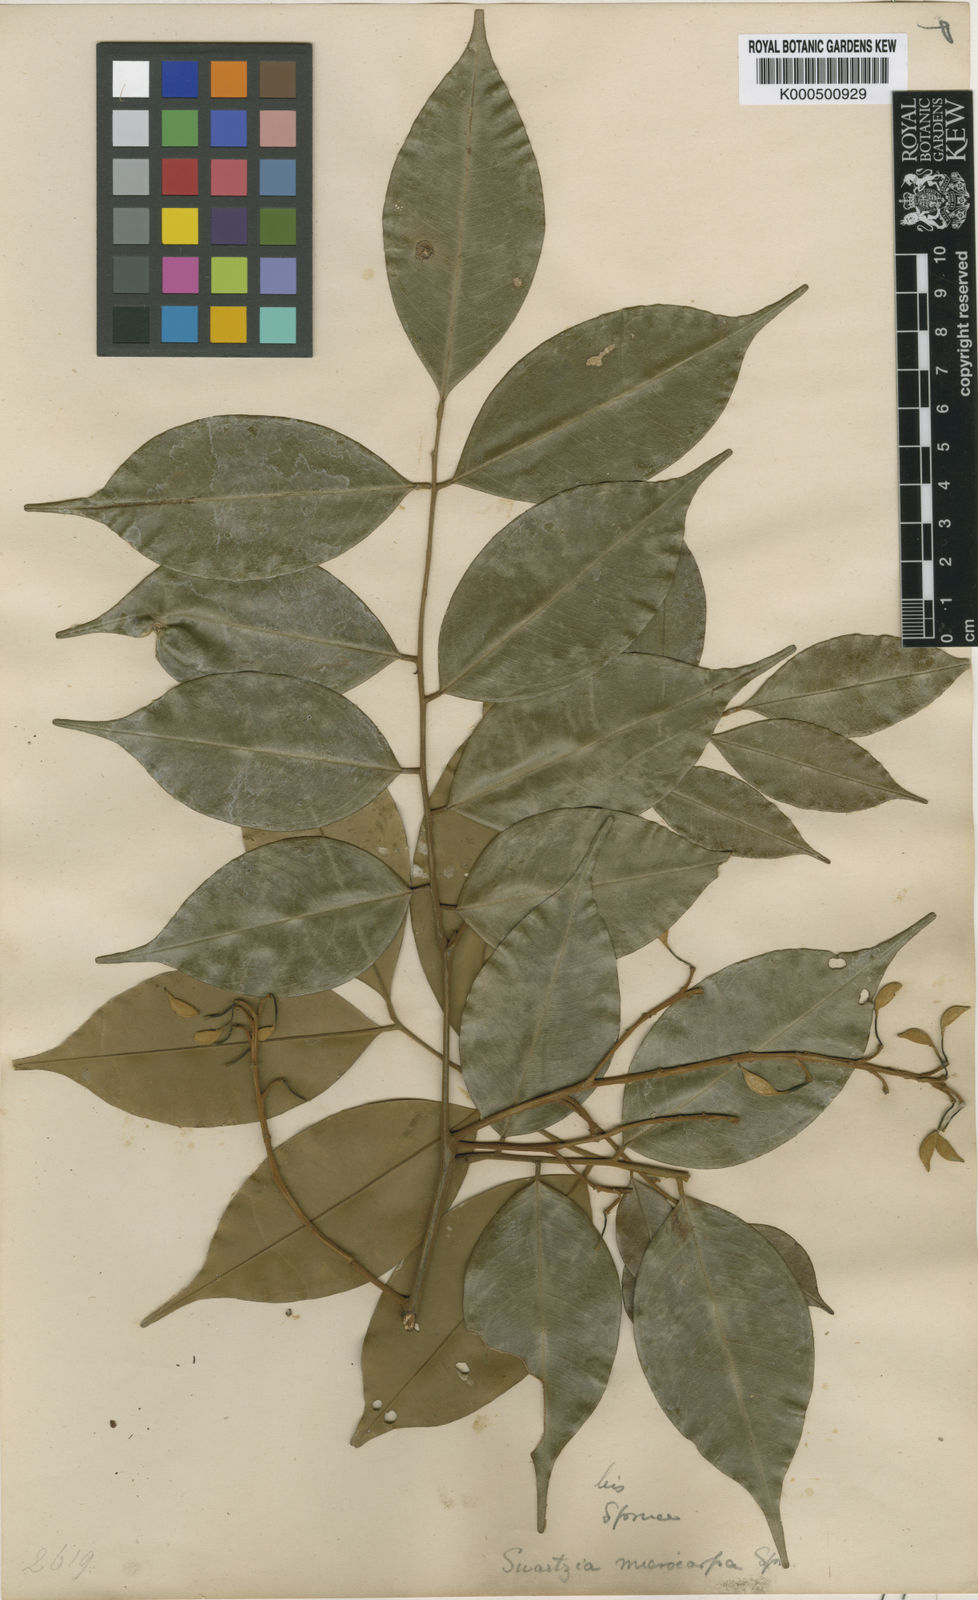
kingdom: Plantae
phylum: Tracheophyta
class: Magnoliopsida
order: Fabales
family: Fabaceae
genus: Swartzia
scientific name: Swartzia microcarpa
